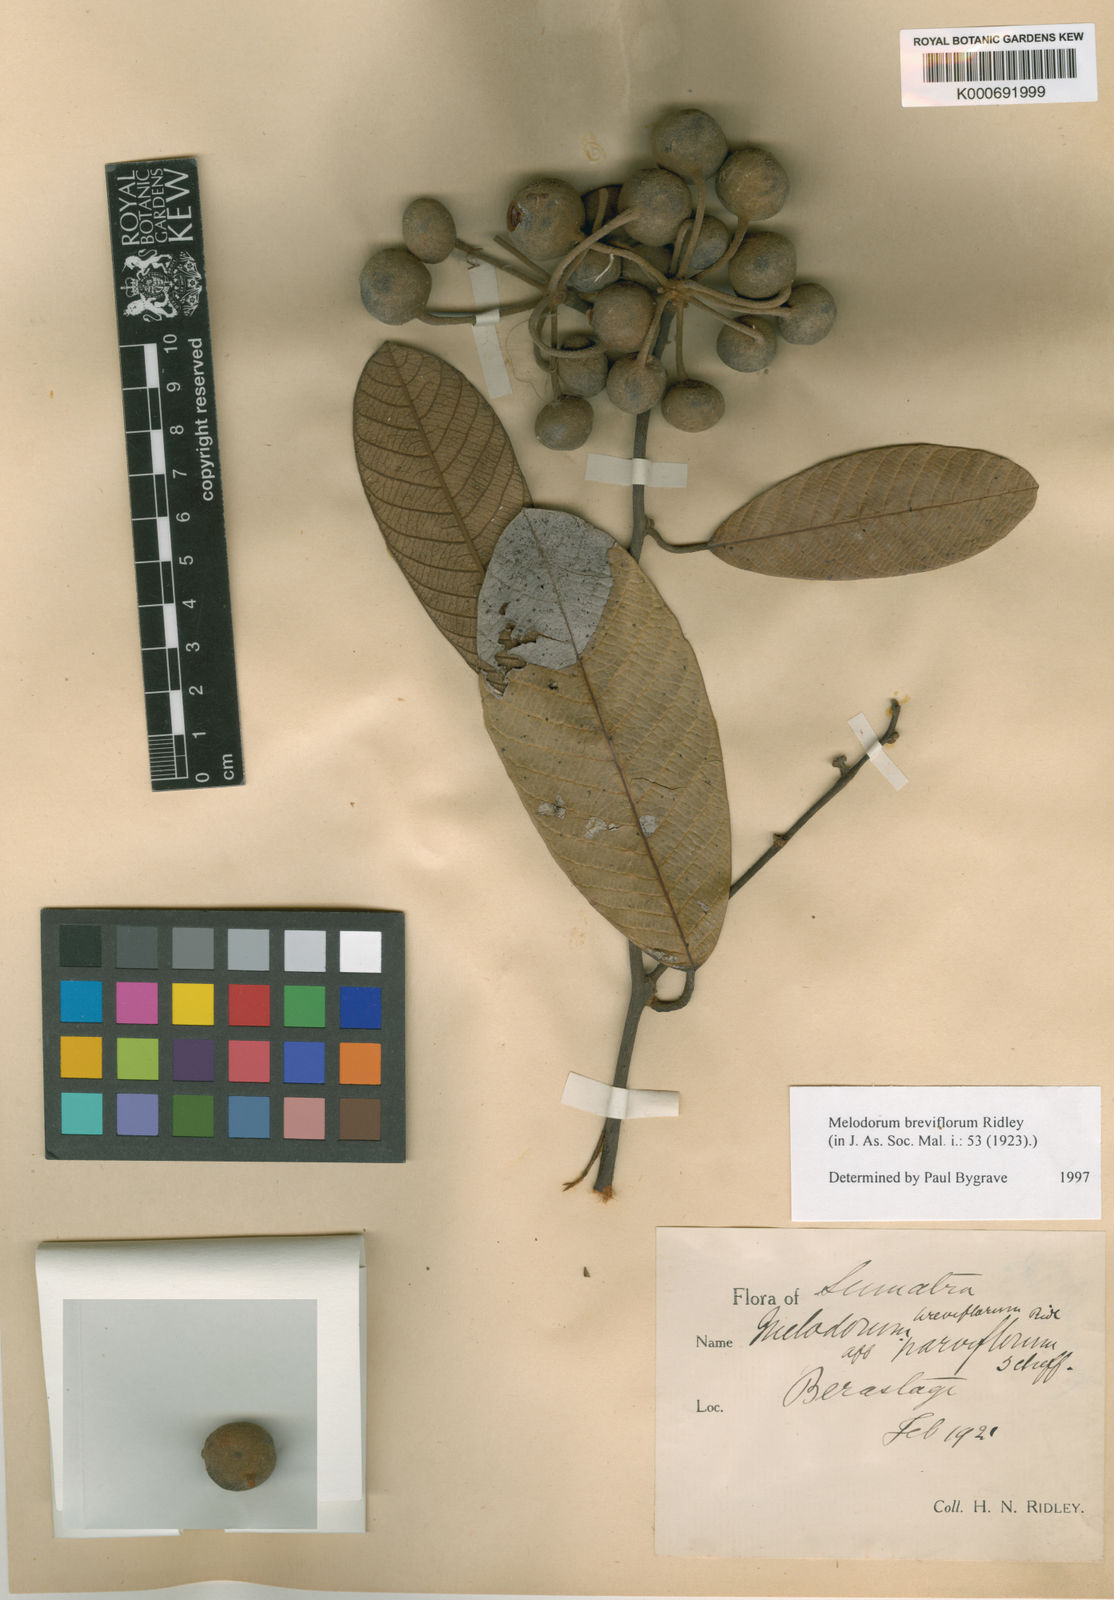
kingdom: Plantae
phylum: Tracheophyta
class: Magnoliopsida
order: Magnoliales
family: Annonaceae
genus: Fissistigma
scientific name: Fissistigma latifolium
